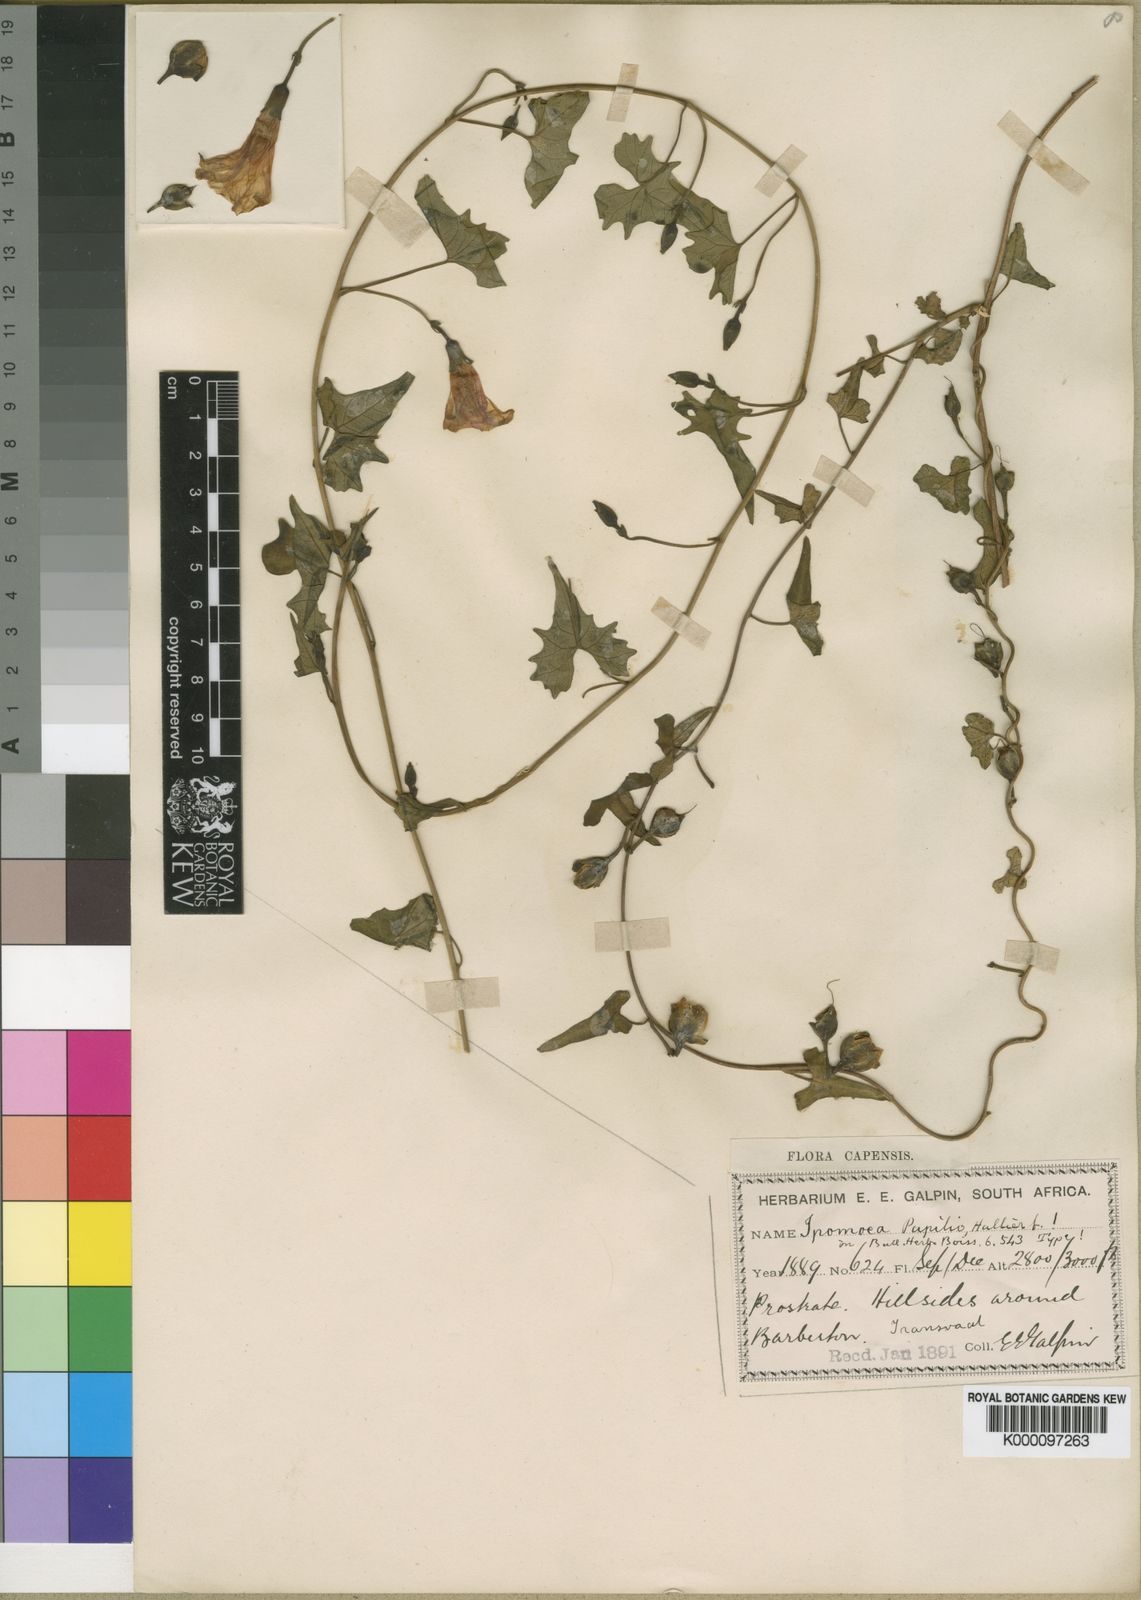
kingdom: Plantae
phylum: Tracheophyta
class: Magnoliopsida
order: Solanales
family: Convolvulaceae
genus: Ipomoea
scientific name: Ipomoea papilio
